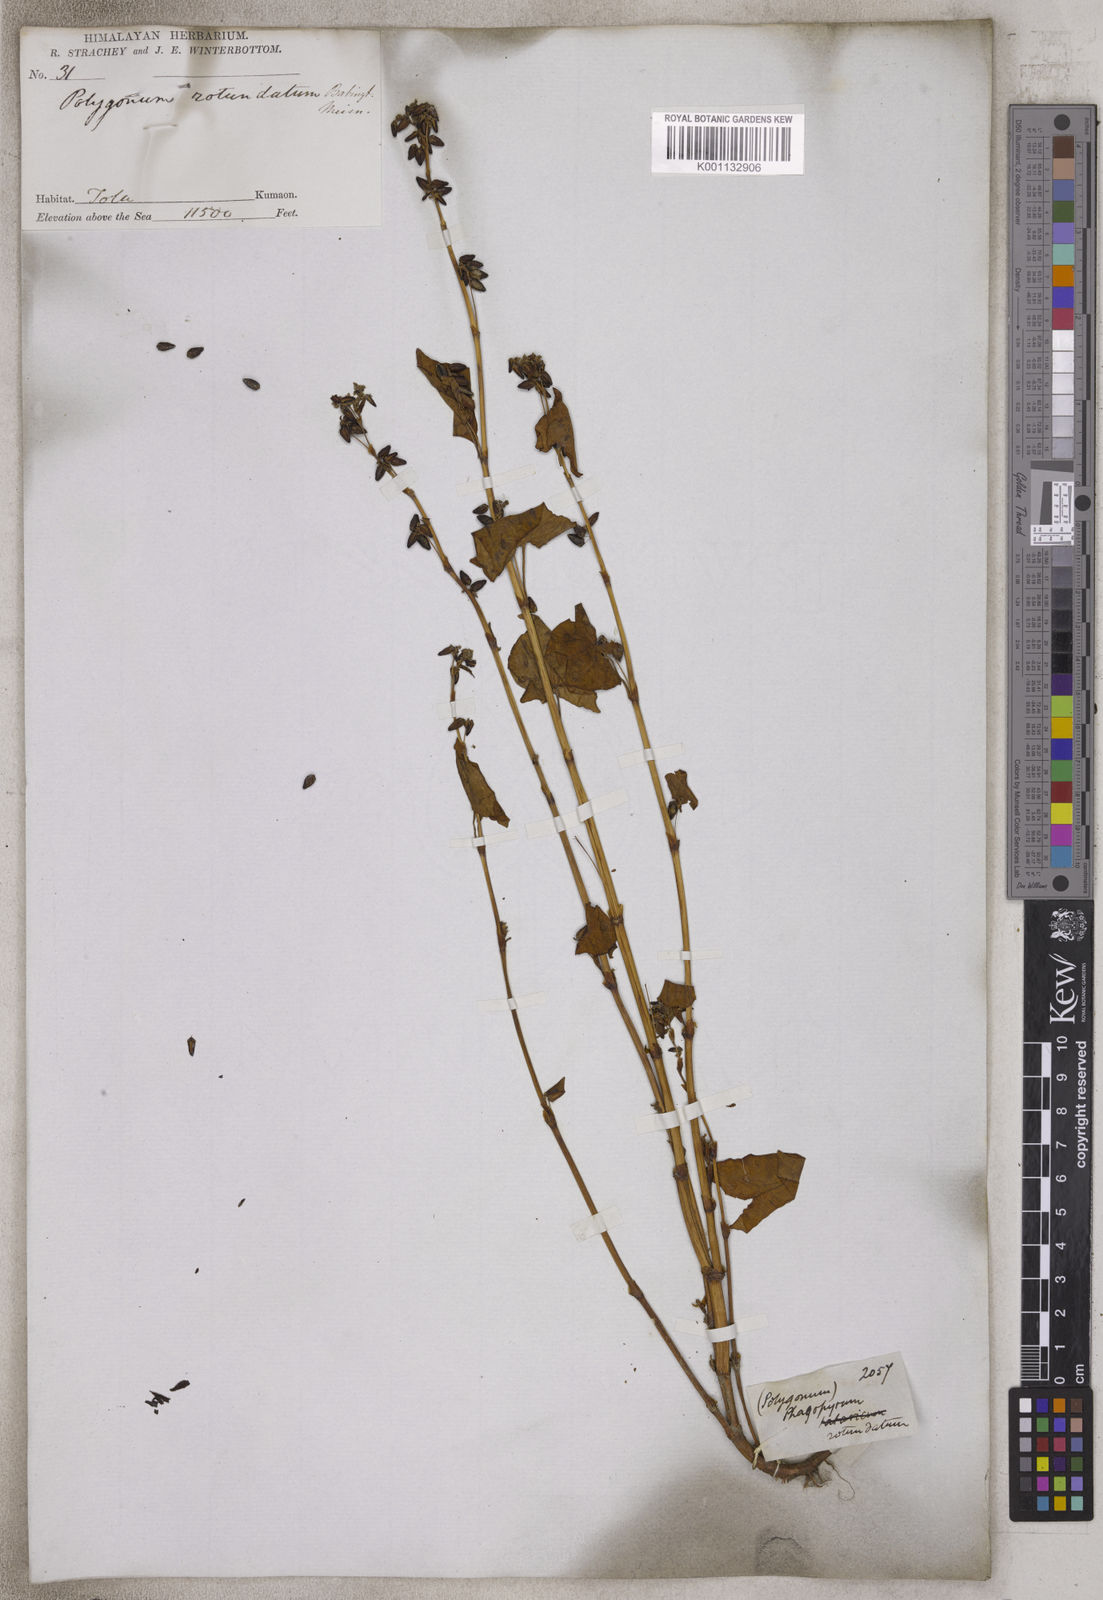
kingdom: Plantae
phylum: Tracheophyta
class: Magnoliopsida
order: Caryophyllales
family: Polygonaceae
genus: Persicaria
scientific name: Persicaria longiseta
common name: Bristly lady's-thumb
